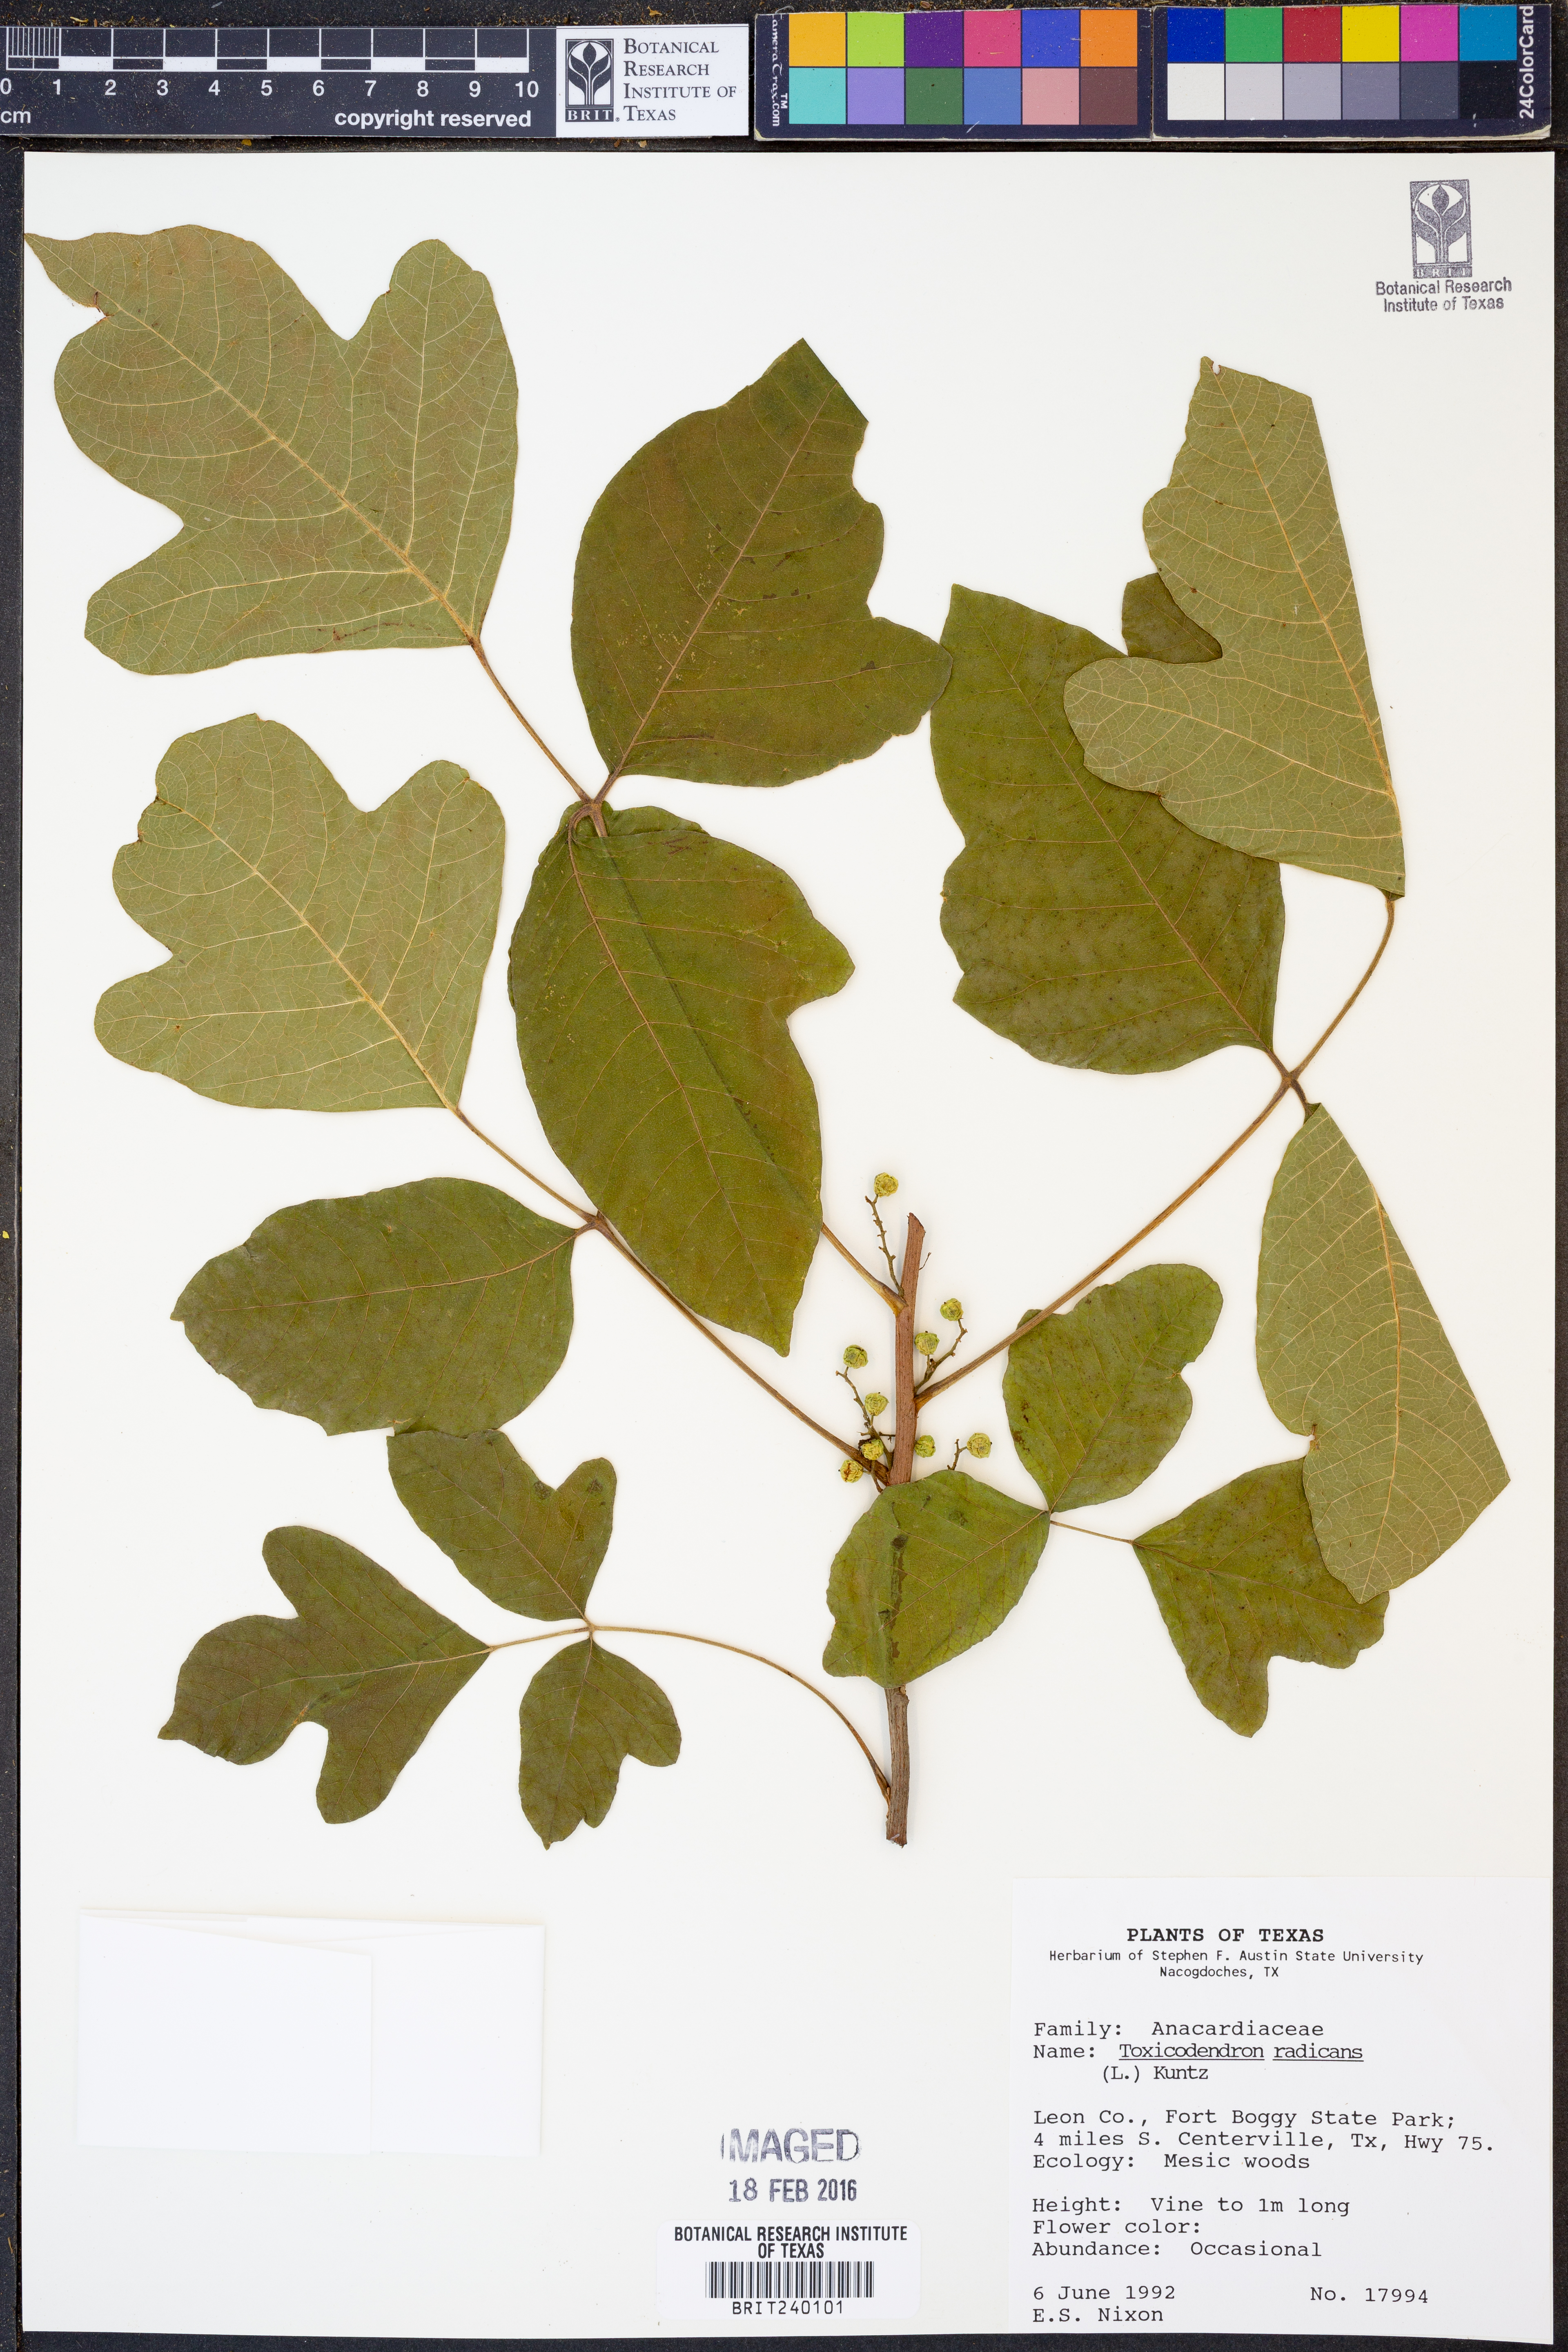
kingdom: Plantae
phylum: Tracheophyta
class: Magnoliopsida
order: Sapindales
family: Anacardiaceae
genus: Toxicodendron
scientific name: Toxicodendron radicans
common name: Poison ivy
